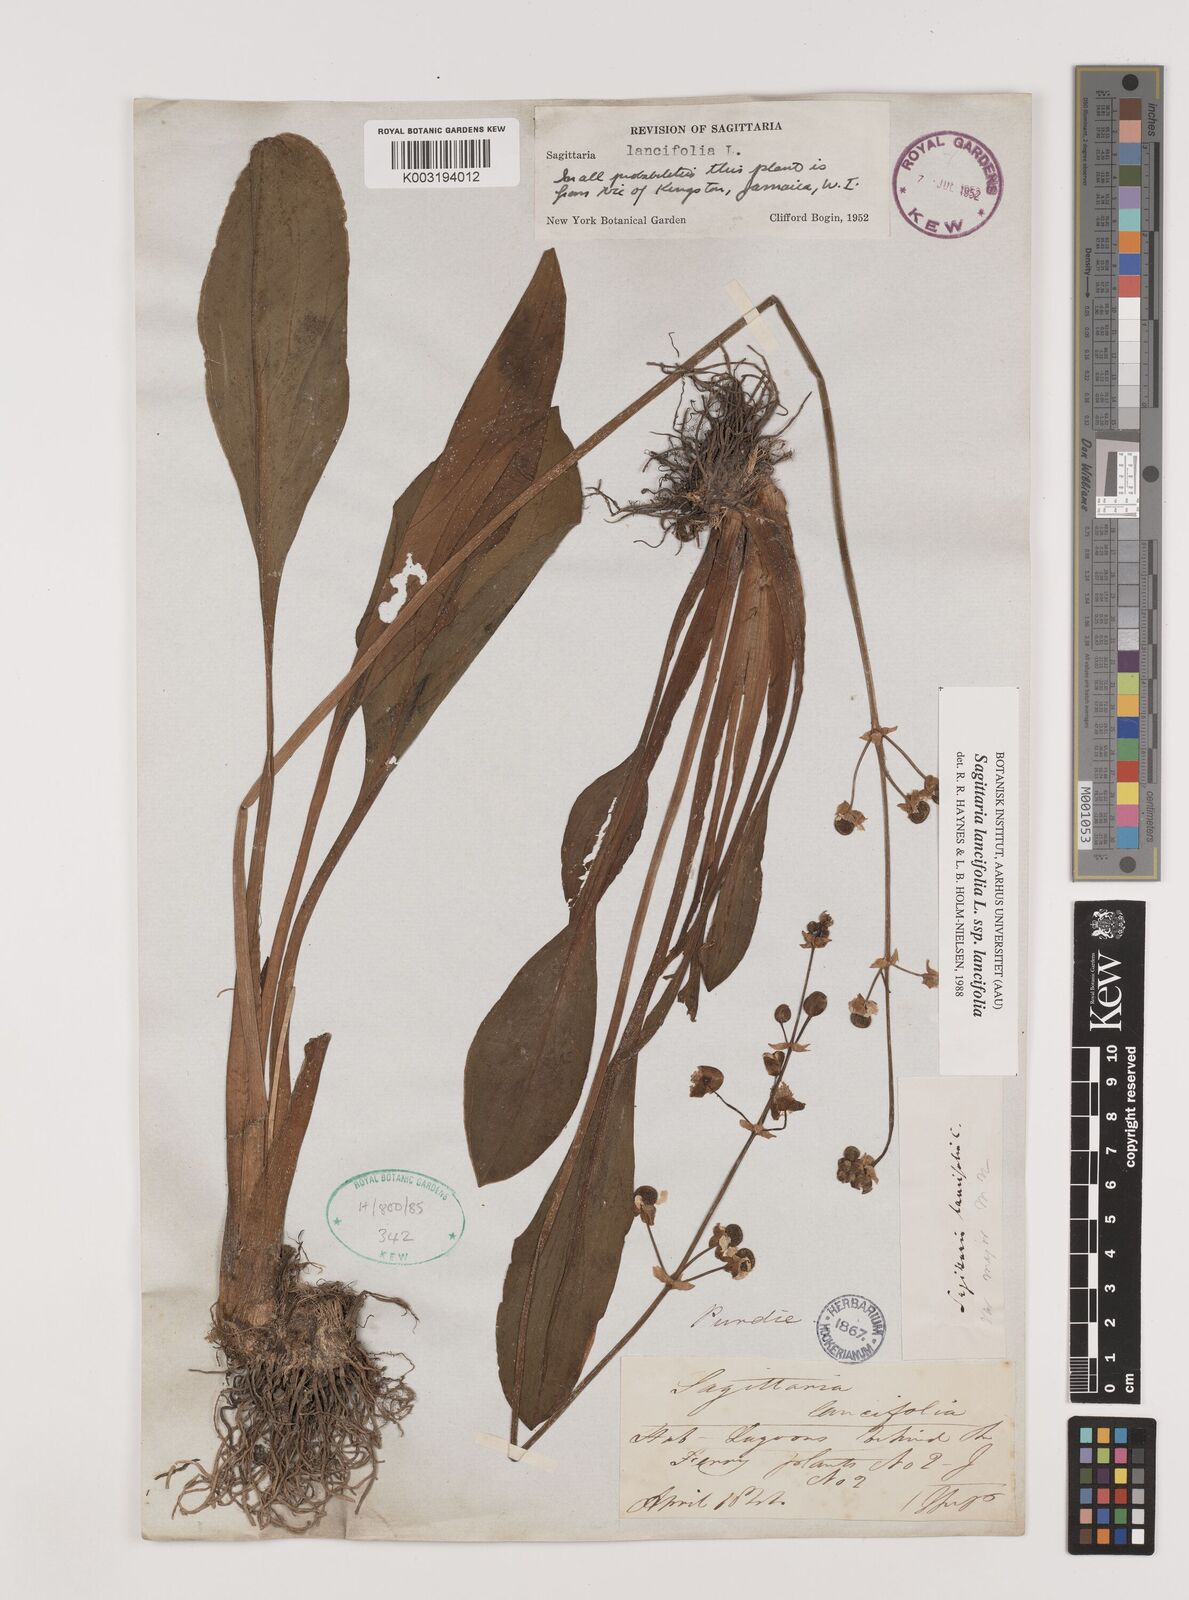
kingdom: Plantae
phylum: Tracheophyta
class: Liliopsida
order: Alismatales
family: Alismataceae
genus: Sagittaria
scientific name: Sagittaria lancifolia
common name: Lance-leaf arrowhead
